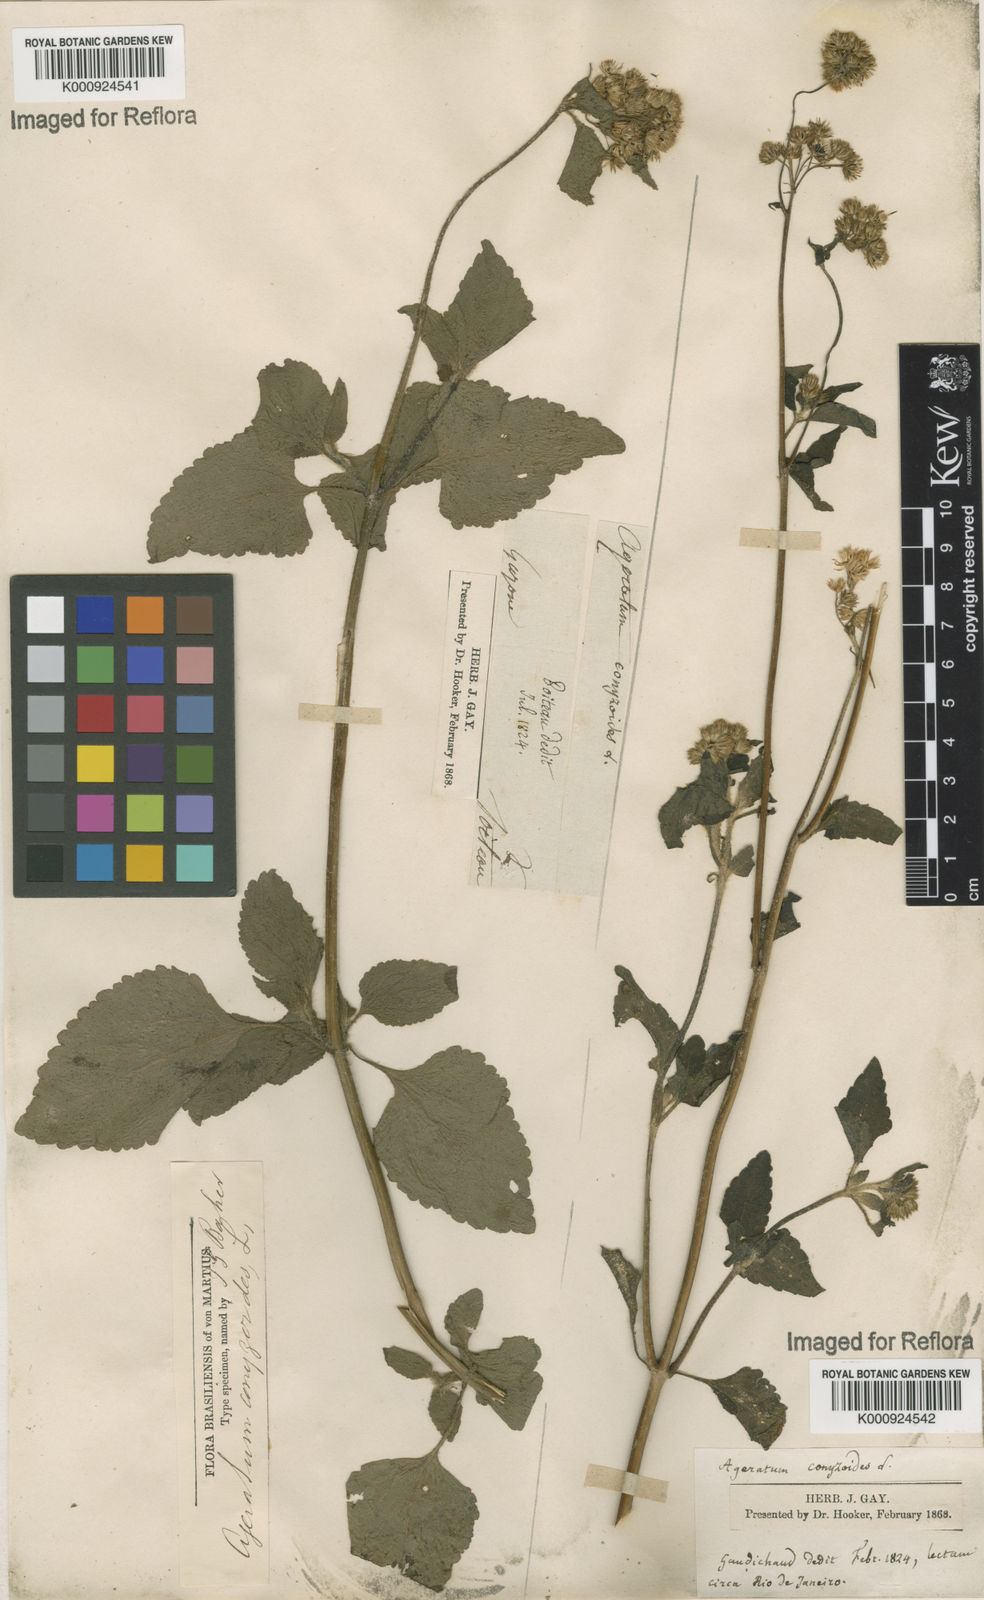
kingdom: Plantae
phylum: Tracheophyta
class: Magnoliopsida
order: Asterales
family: Asteraceae
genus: Ageratum
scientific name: Ageratum conyzoides
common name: Tropical whiteweed
